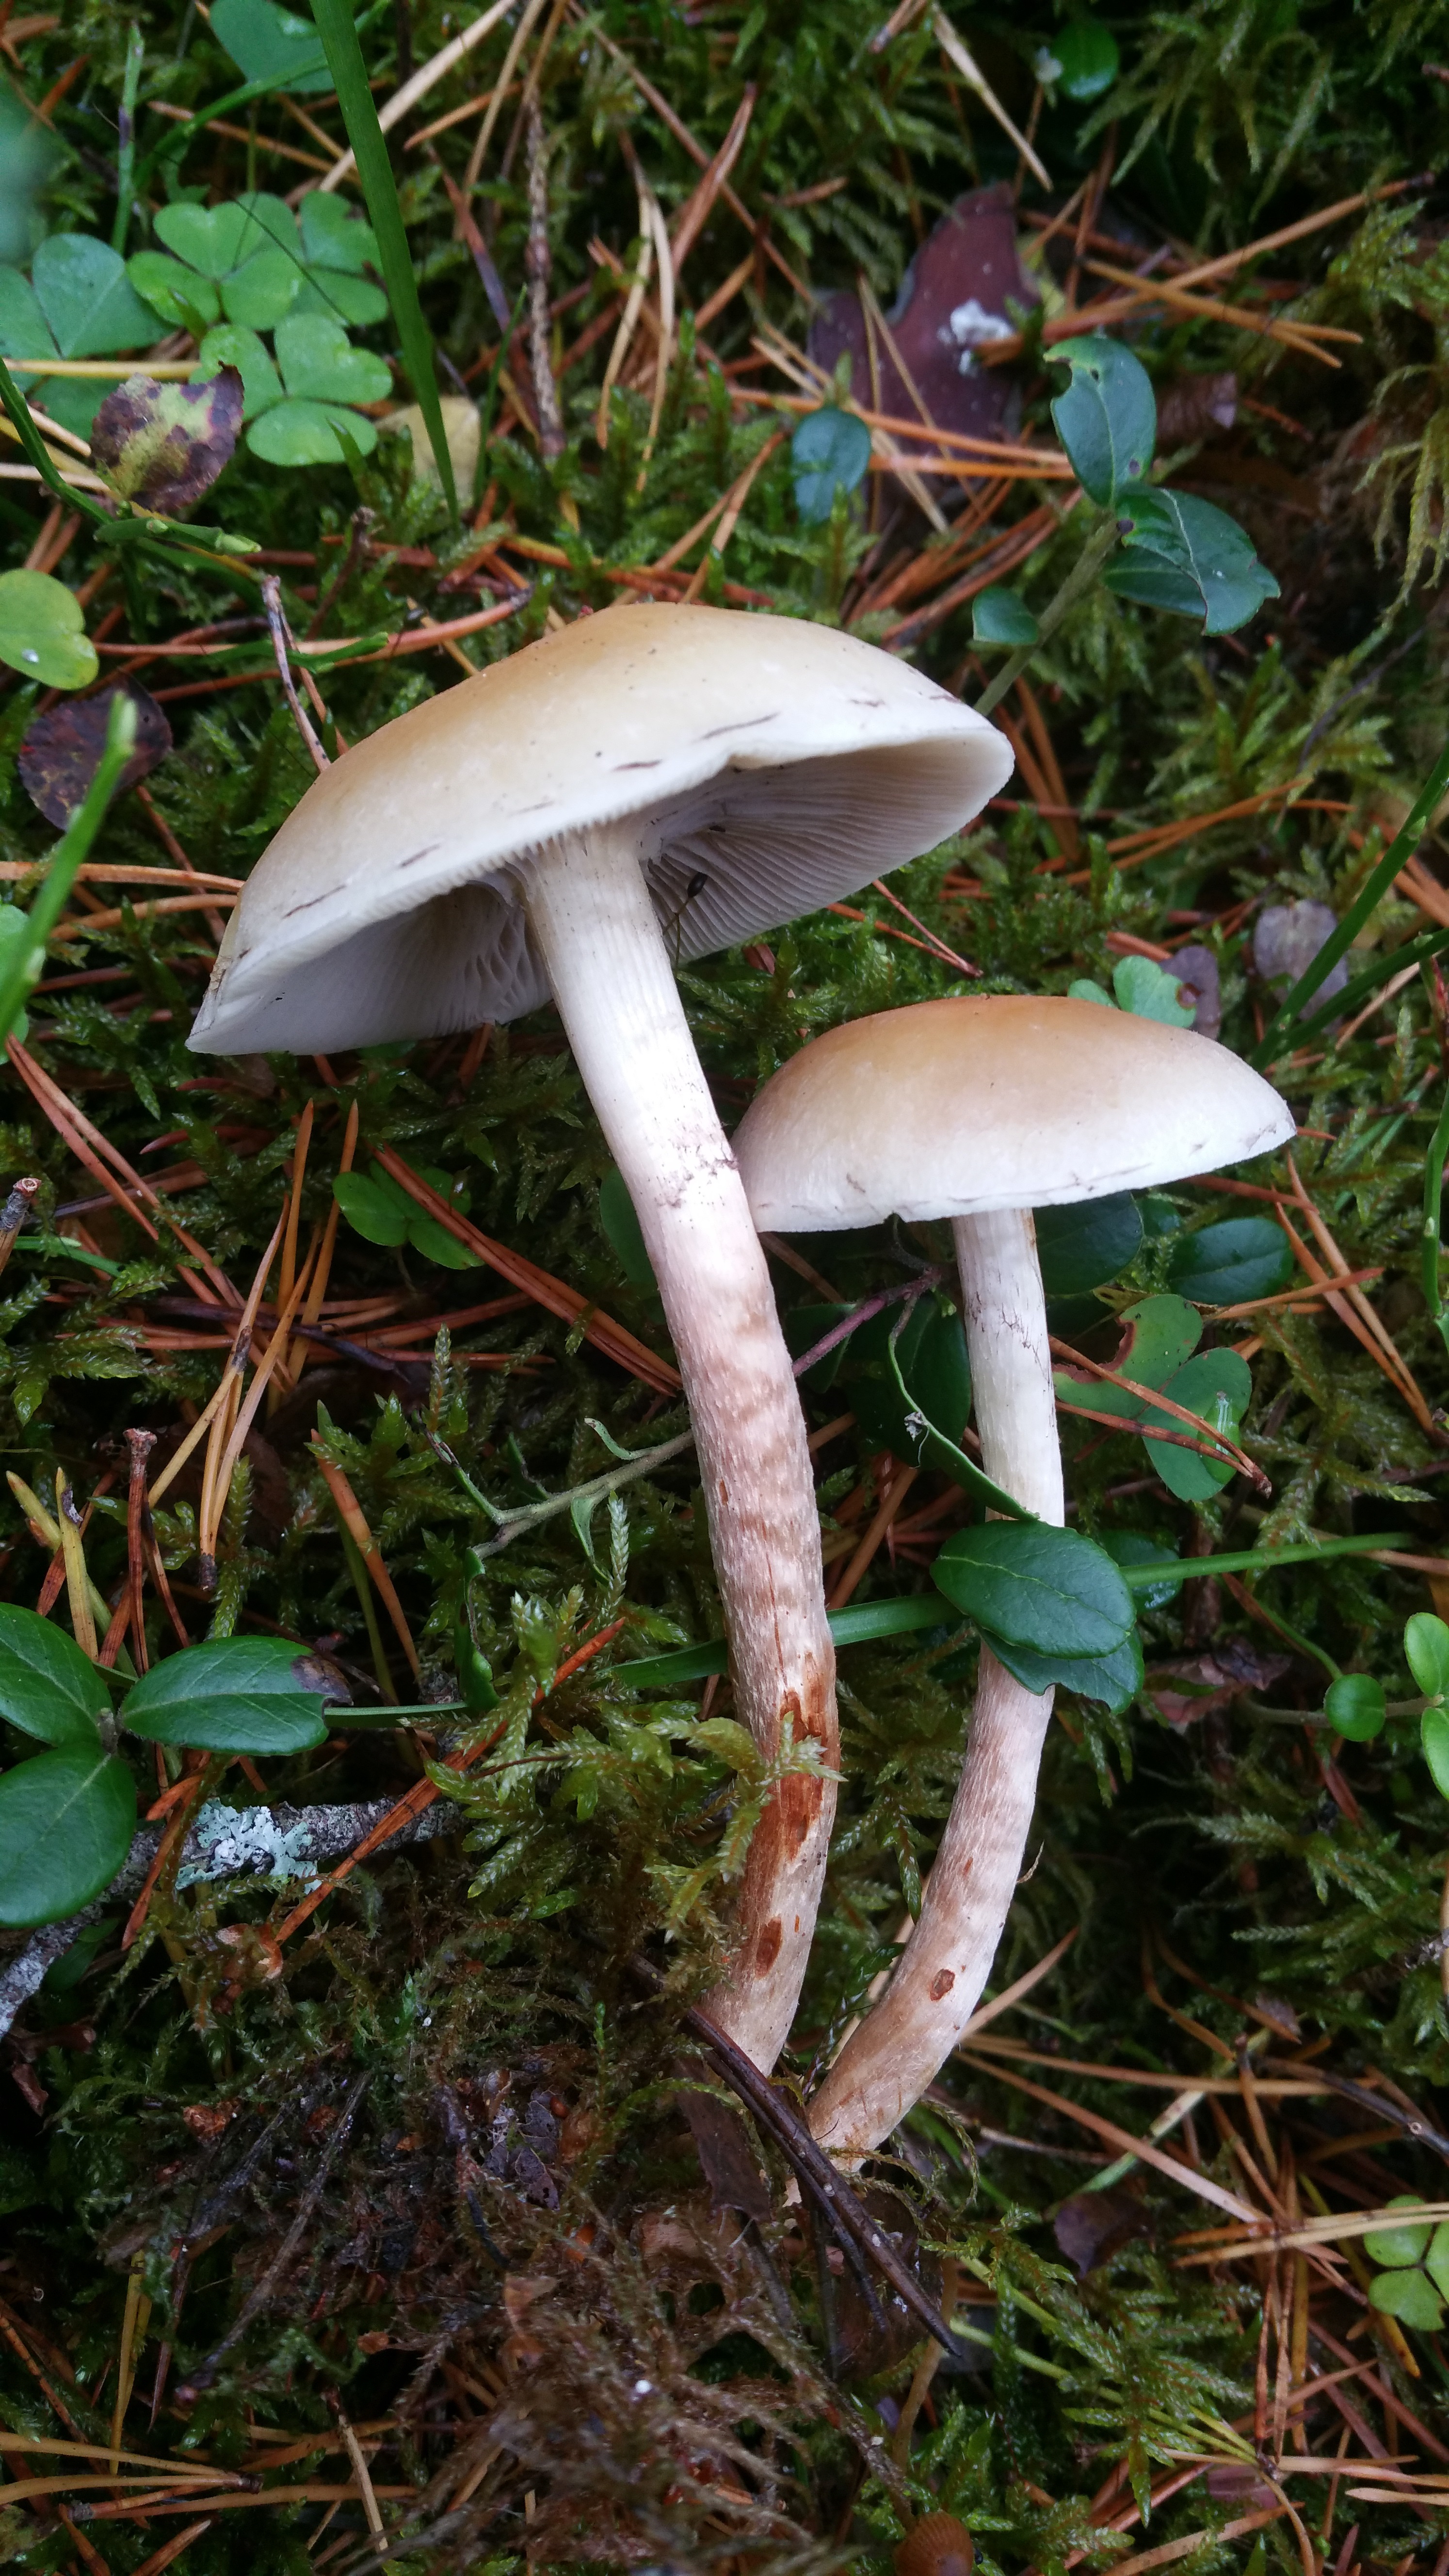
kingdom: Fungi
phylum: Basidiomycota
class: Agaricomycetes
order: Agaricales
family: Strophariaceae
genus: Hypholoma
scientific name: Hypholoma capnoides
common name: Conifer tuft
